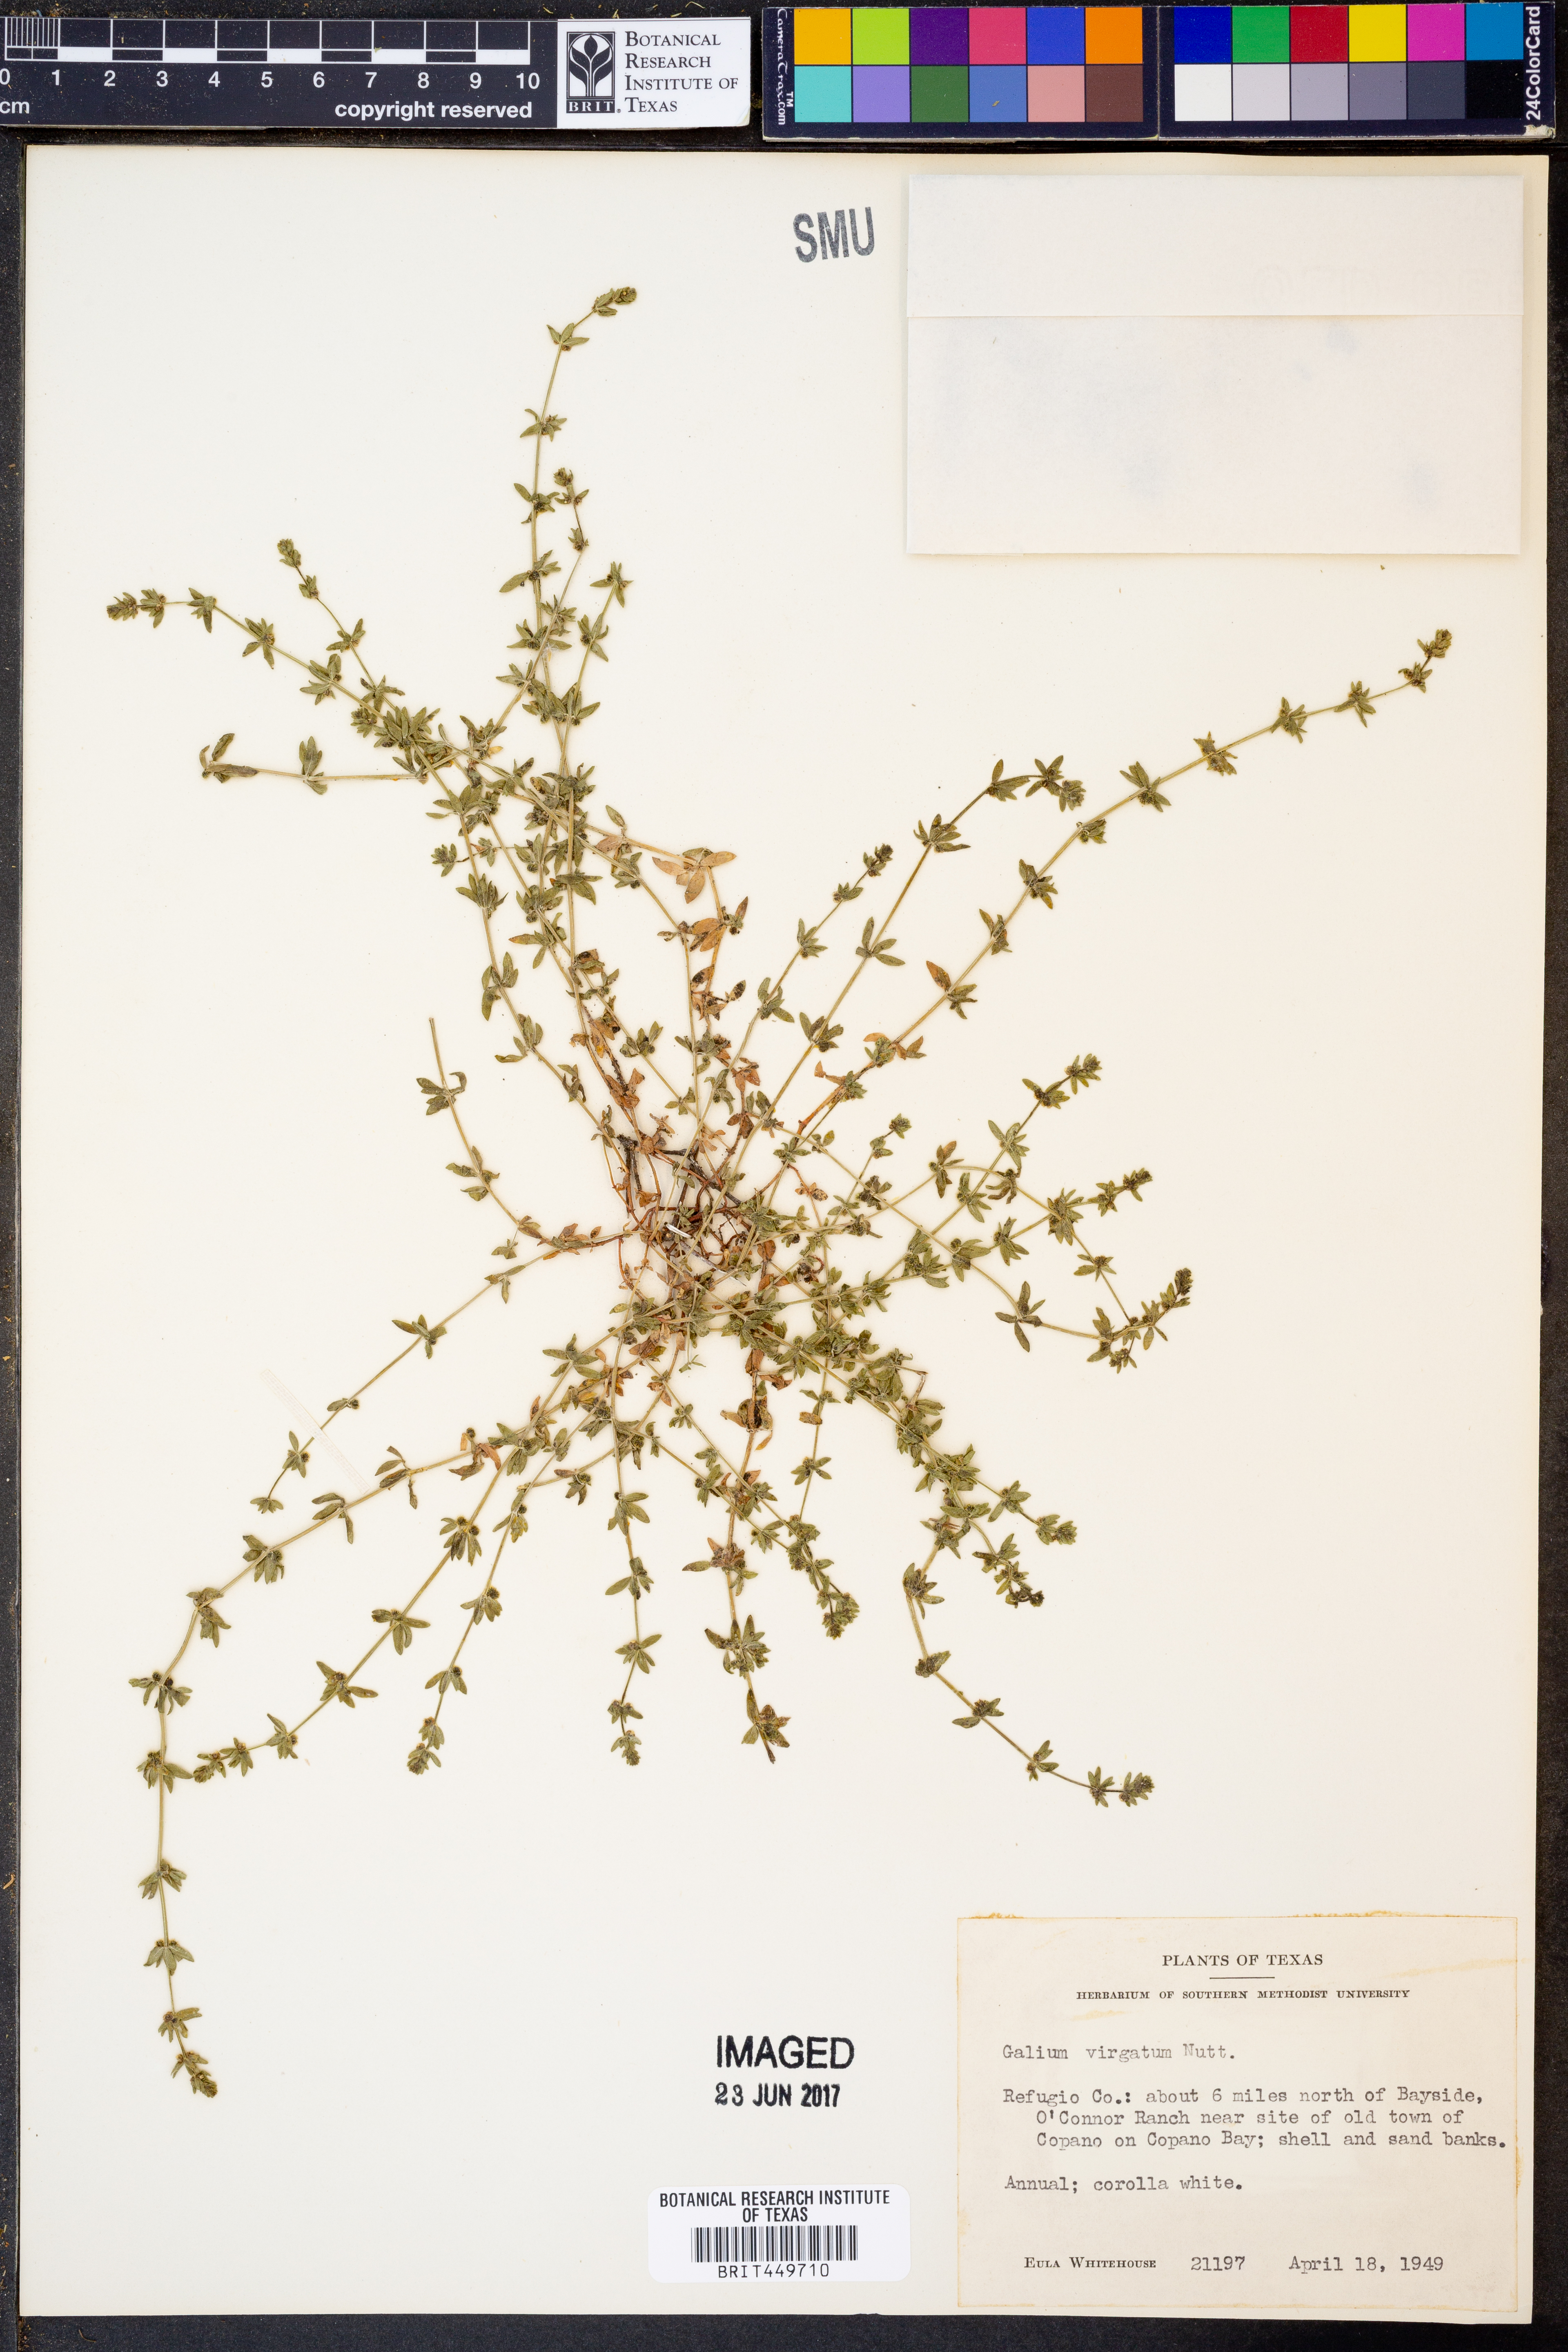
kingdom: Plantae
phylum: Tracheophyta
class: Magnoliopsida
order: Gentianales
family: Rubiaceae
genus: Galium
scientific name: Galium virgatum
